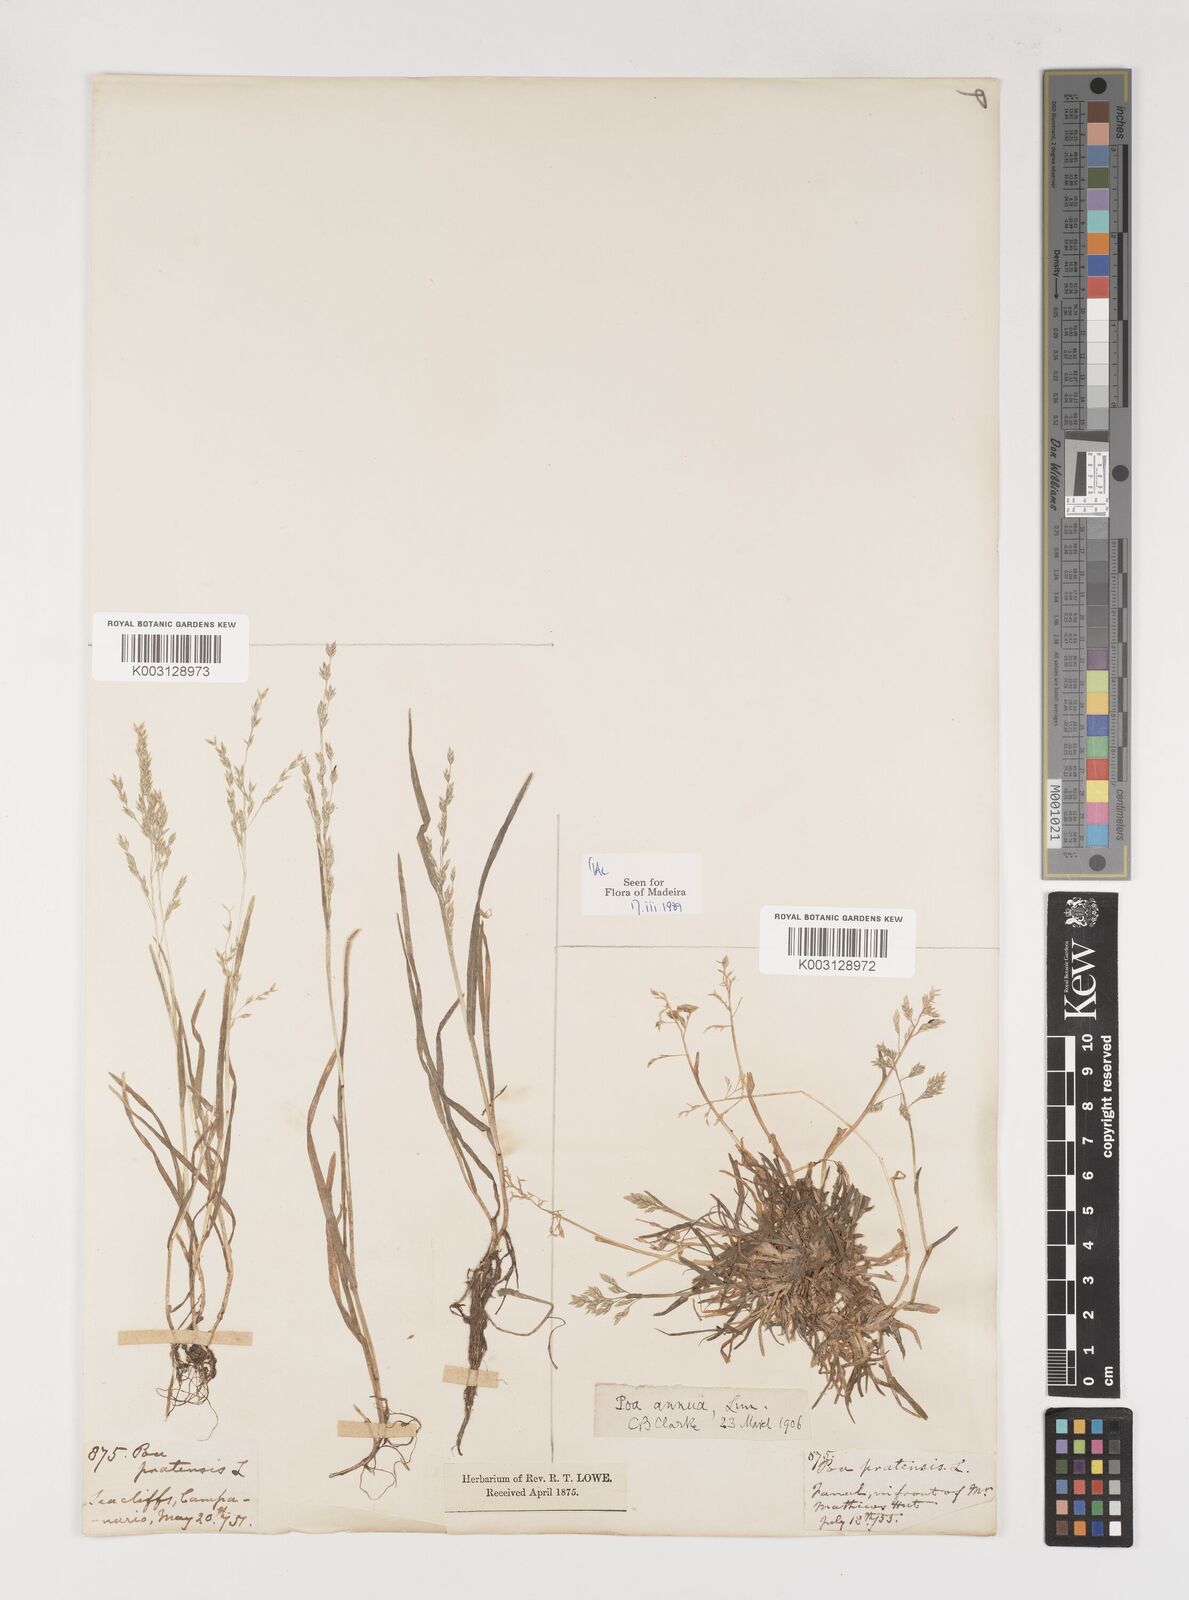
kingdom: Plantae
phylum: Tracheophyta
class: Liliopsida
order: Poales
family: Poaceae
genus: Poa
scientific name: Poa annua
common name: Annual bluegrass
